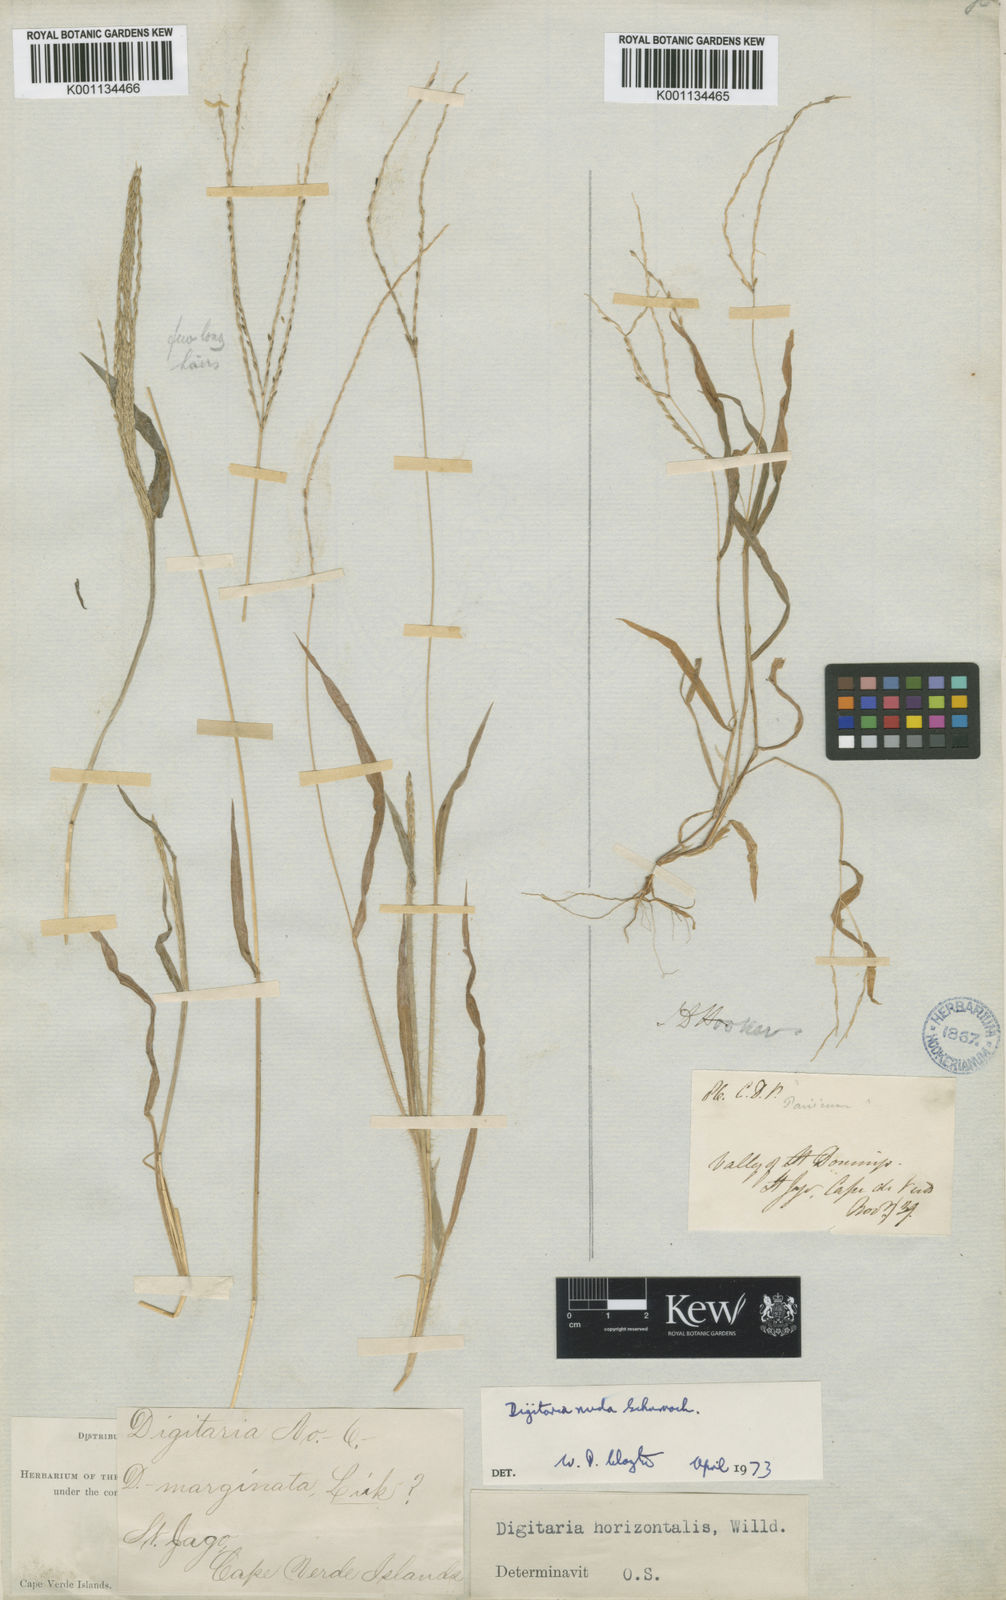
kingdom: Plantae
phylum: Tracheophyta
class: Liliopsida
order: Poales
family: Poaceae
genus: Digitaria
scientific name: Digitaria nuda
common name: Naked crabgrass
